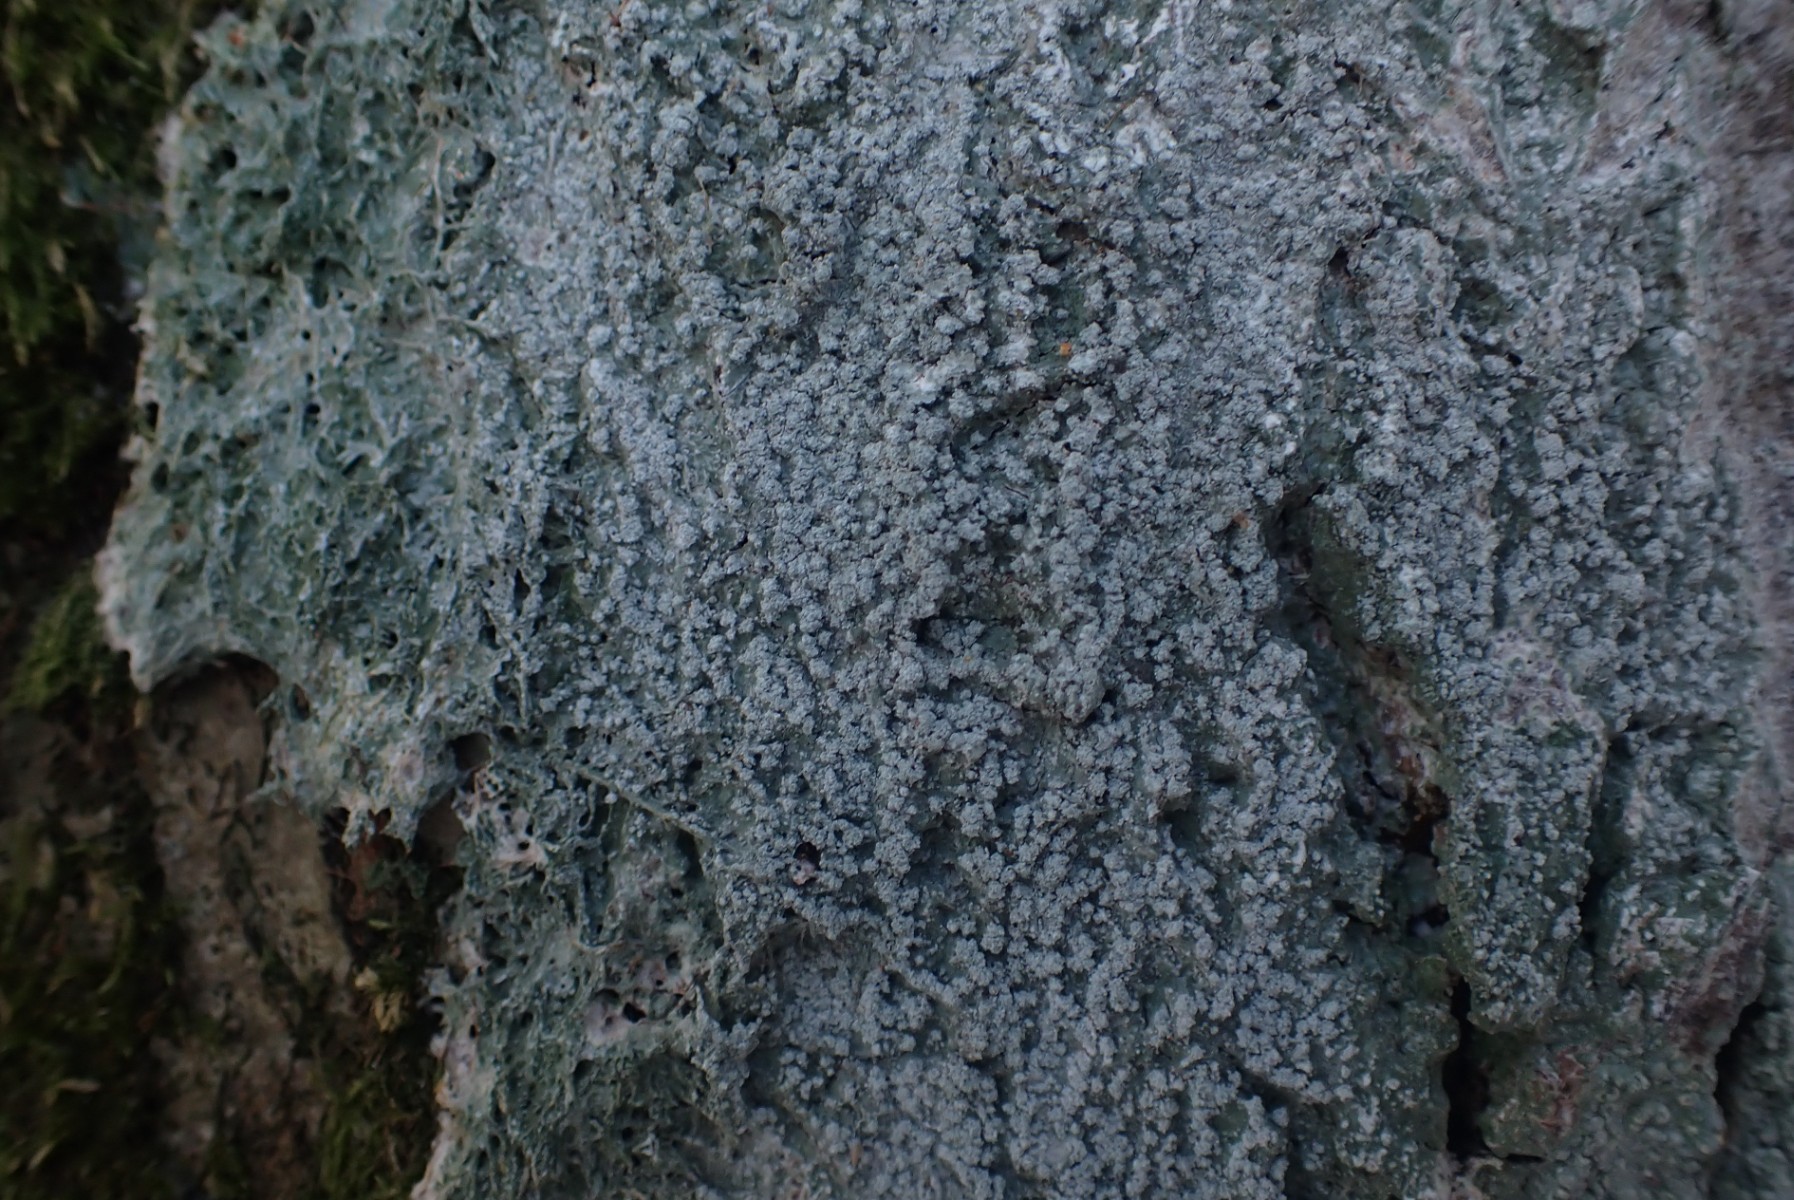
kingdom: Fungi
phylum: Ascomycota
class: Lecanoromycetes
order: Pertusariales
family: Pertusariaceae
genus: Lepra
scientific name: Lepra amara
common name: bitter prikvortelav
